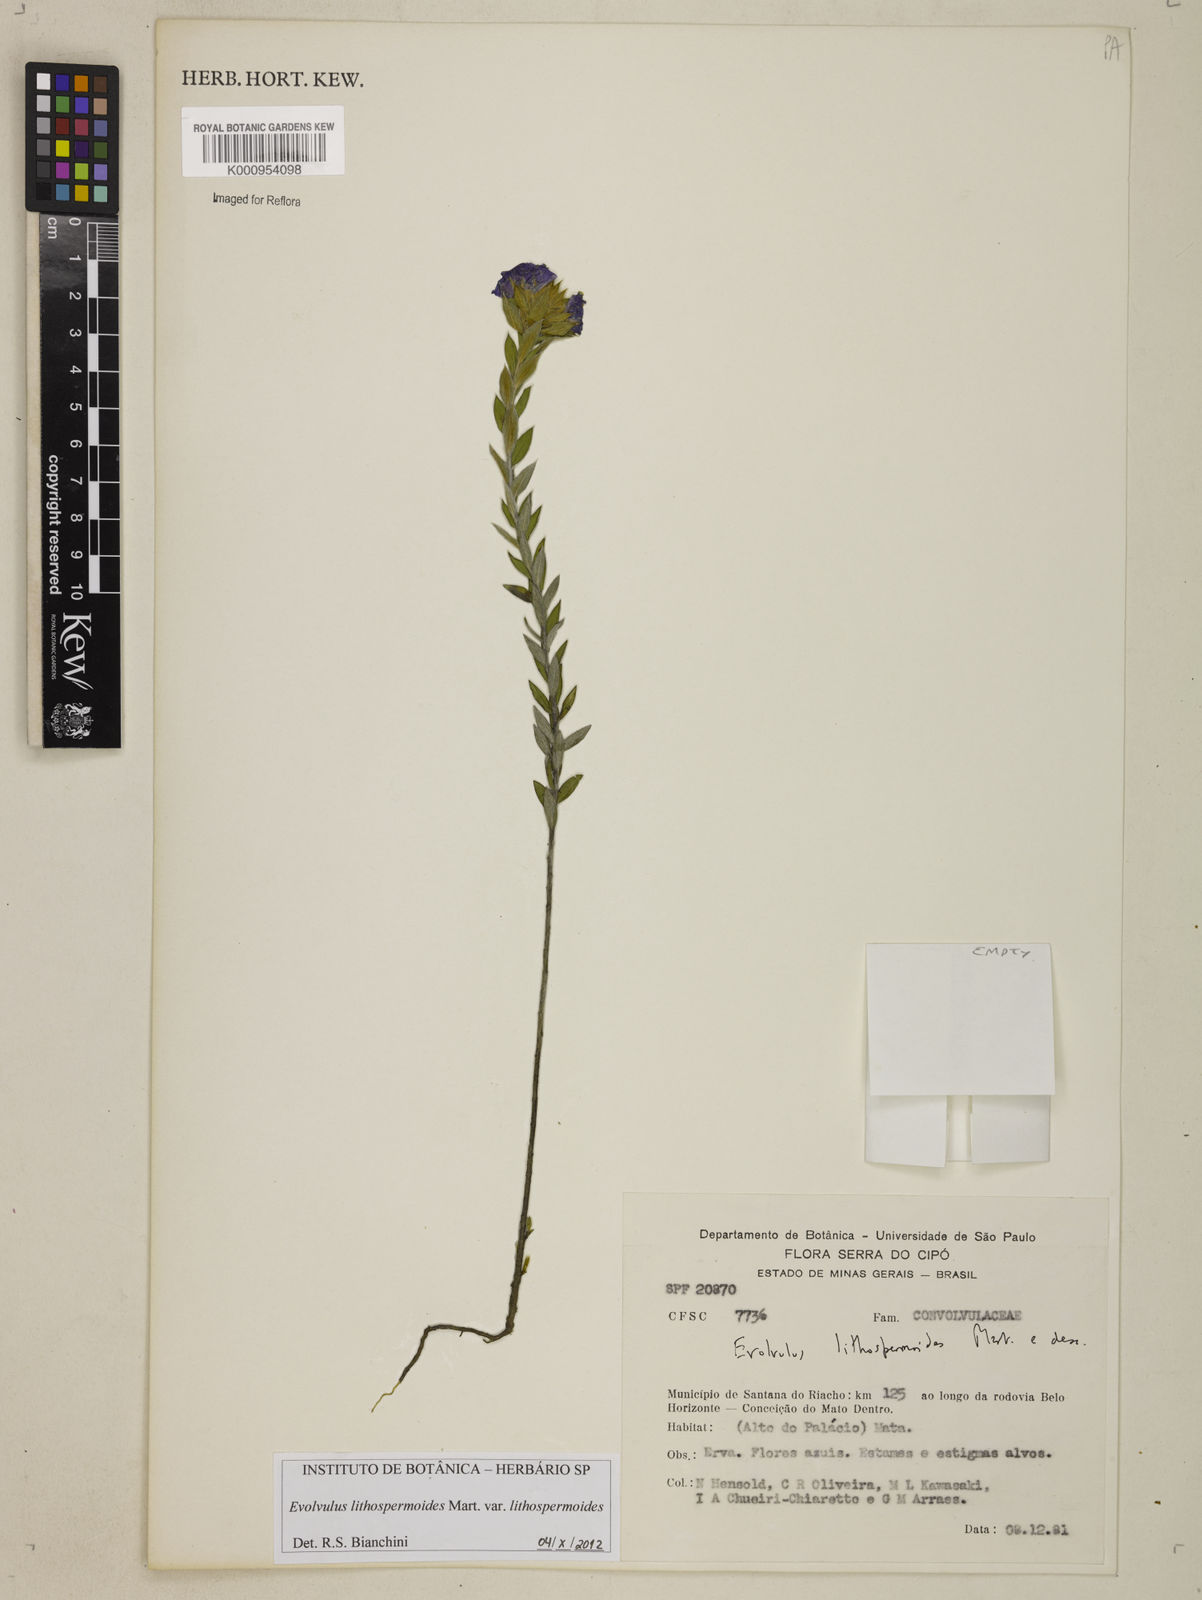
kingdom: Plantae
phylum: Tracheophyta
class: Magnoliopsida
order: Solanales
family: Convolvulaceae
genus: Evolvulus
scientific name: Evolvulus lithospermoides
